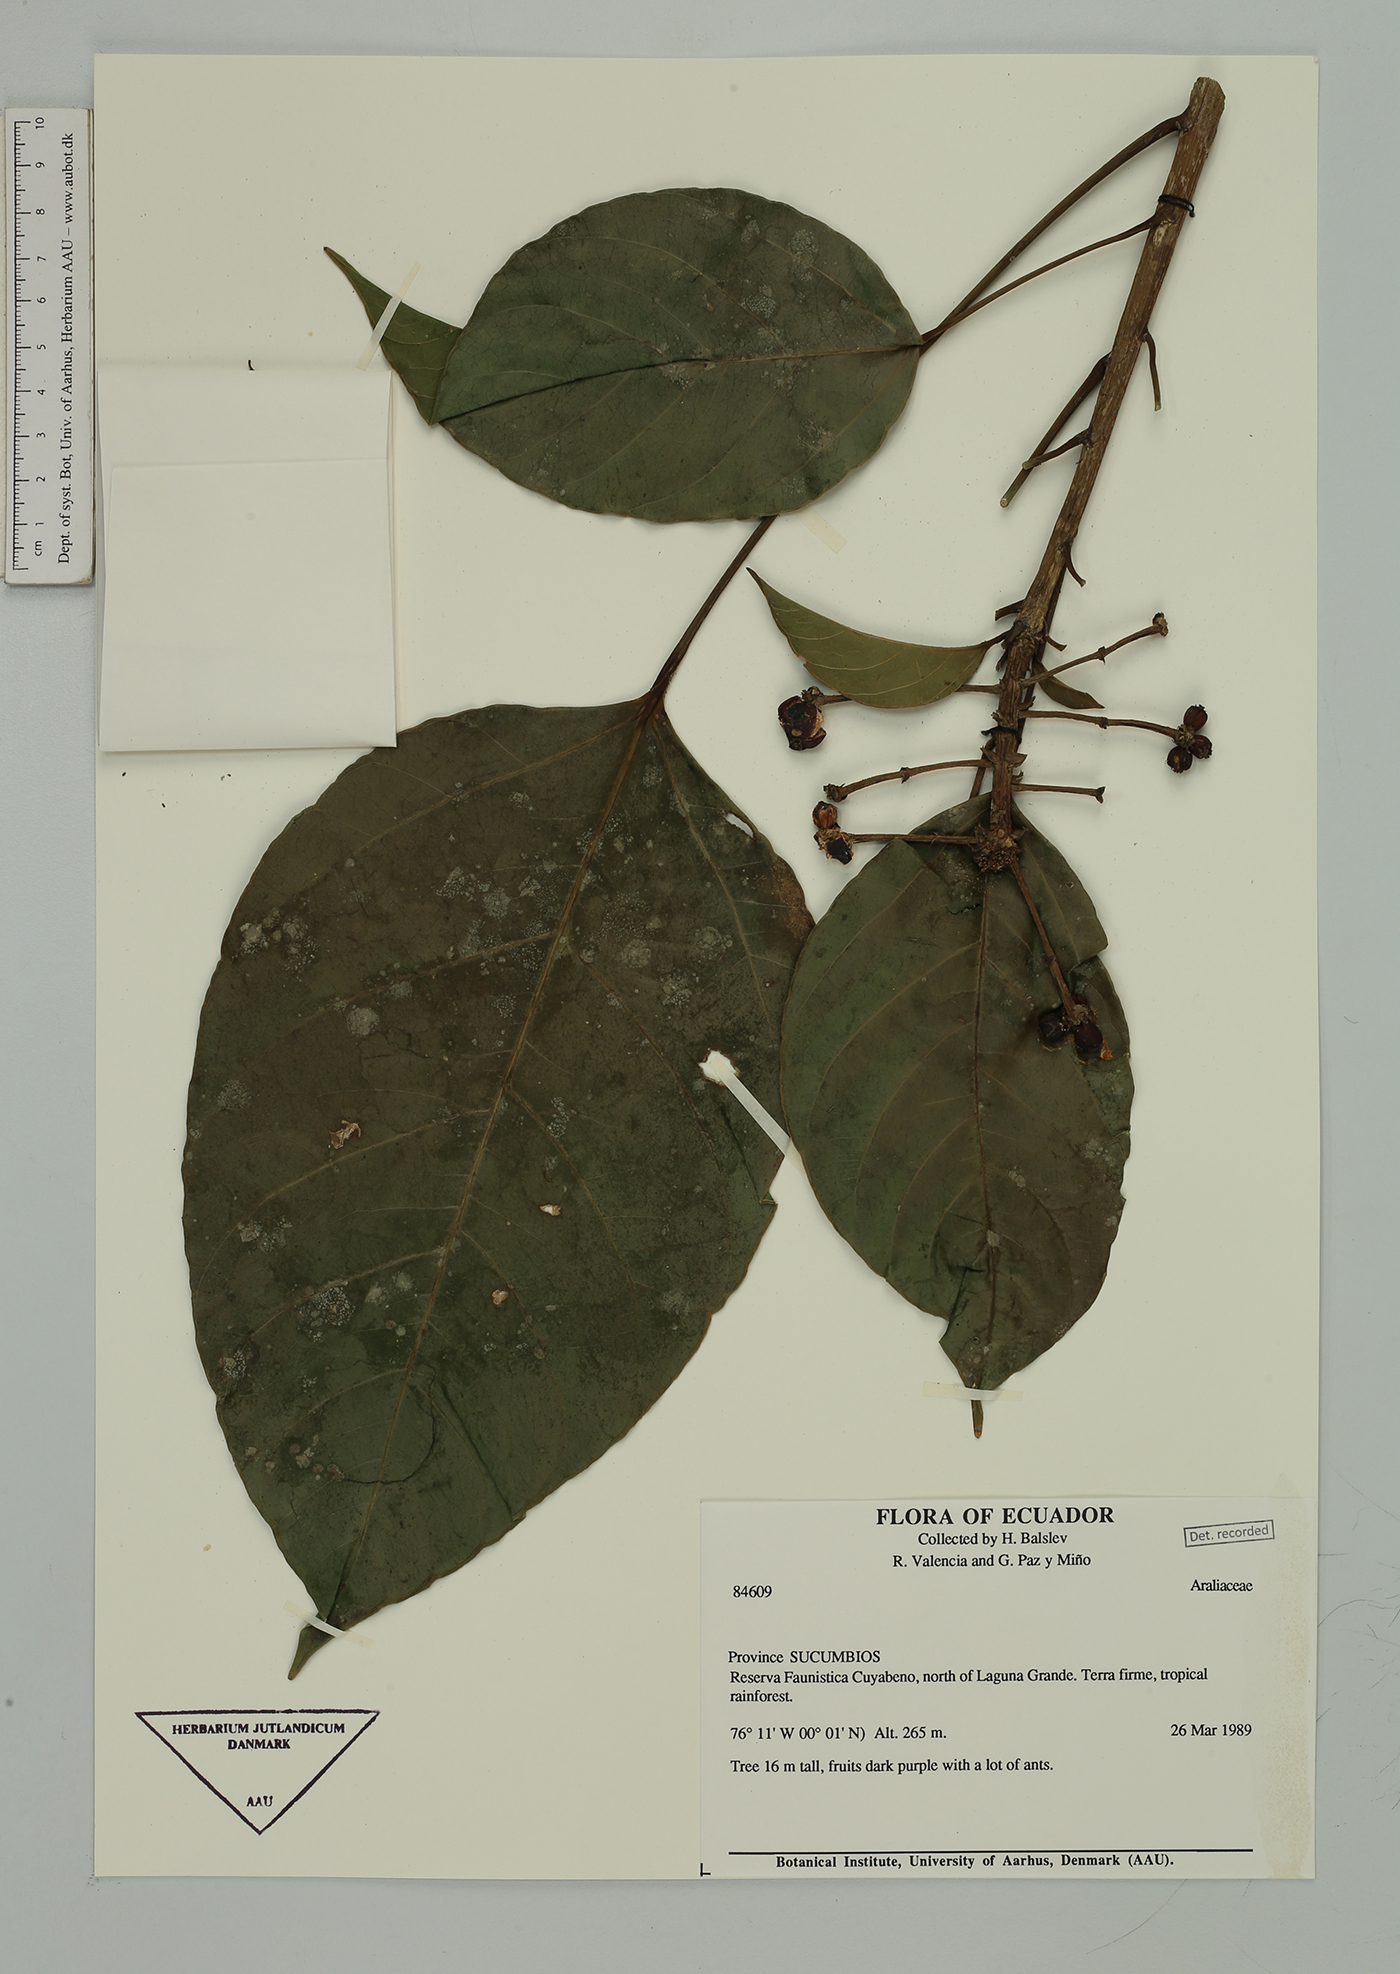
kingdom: Plantae
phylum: Tracheophyta
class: Magnoliopsida
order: Apiales
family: Araliaceae
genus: Oreopanax
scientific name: Oreopanax
